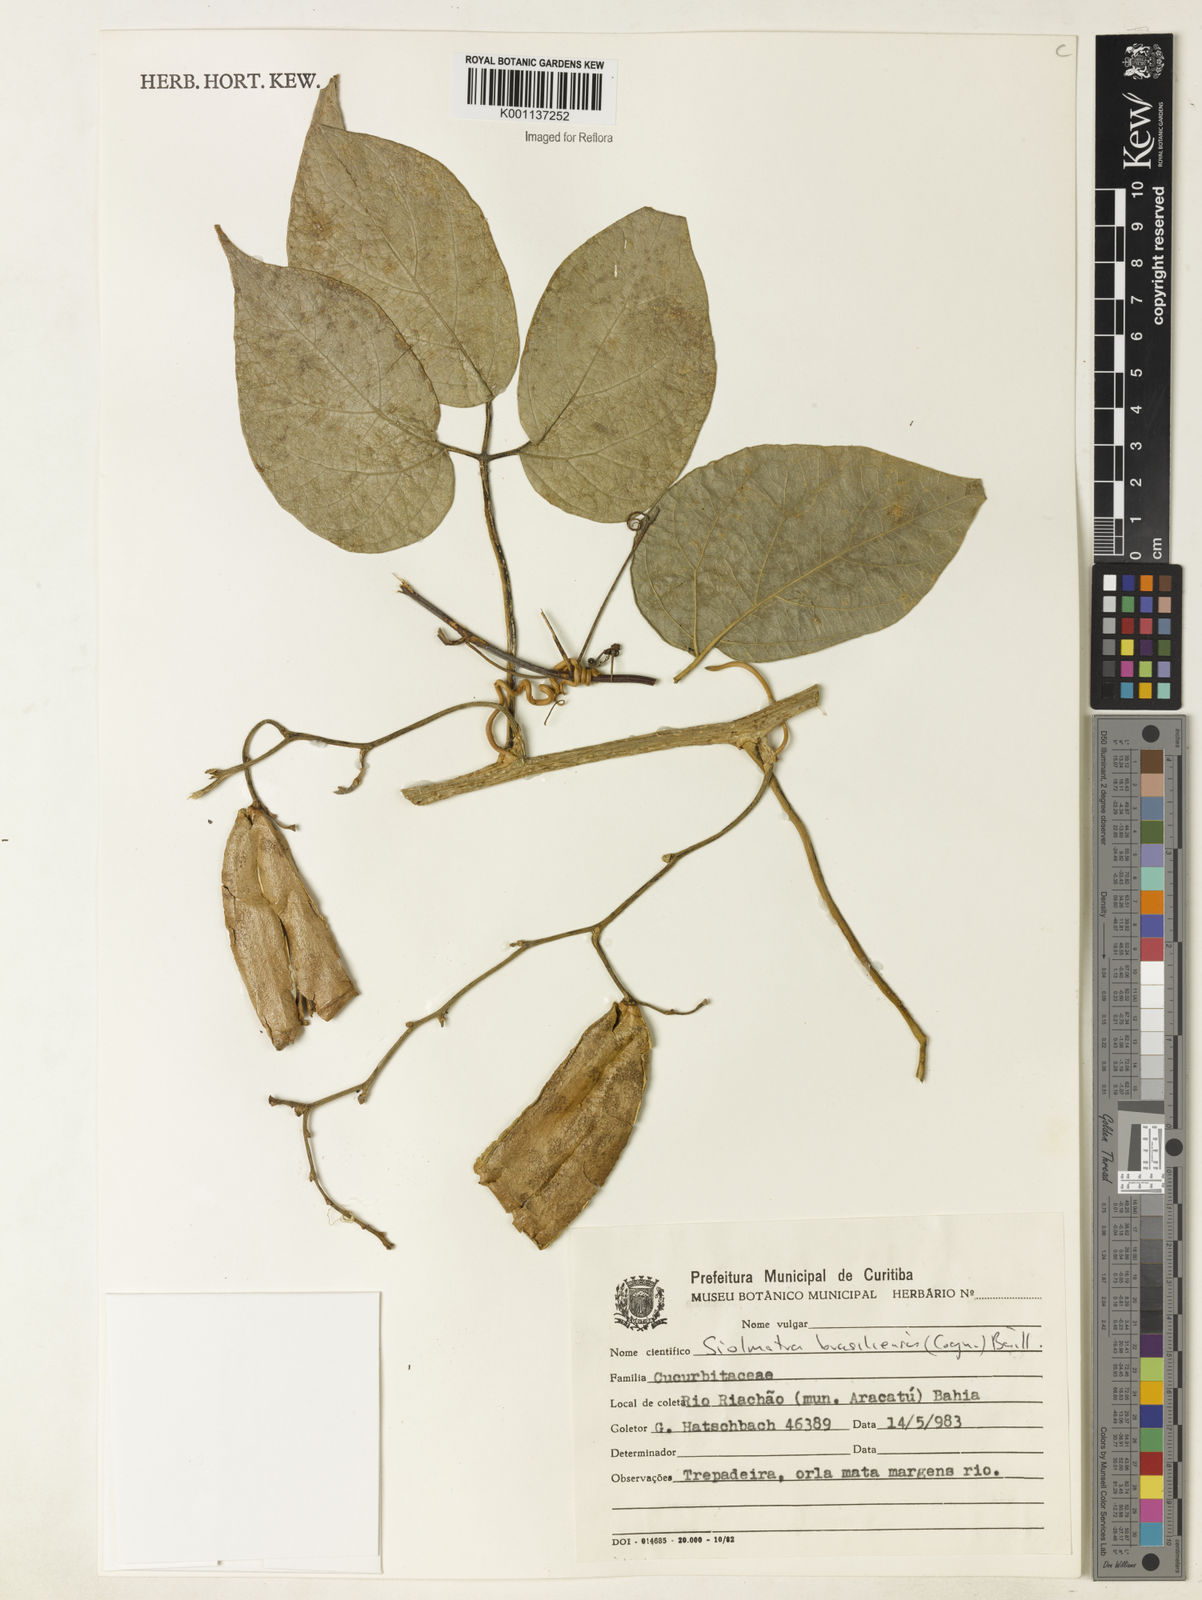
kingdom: Plantae
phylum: Tracheophyta
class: Magnoliopsida
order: Cucurbitales
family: Cucurbitaceae
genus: Siolmatra
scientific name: Siolmatra brasiliensis
